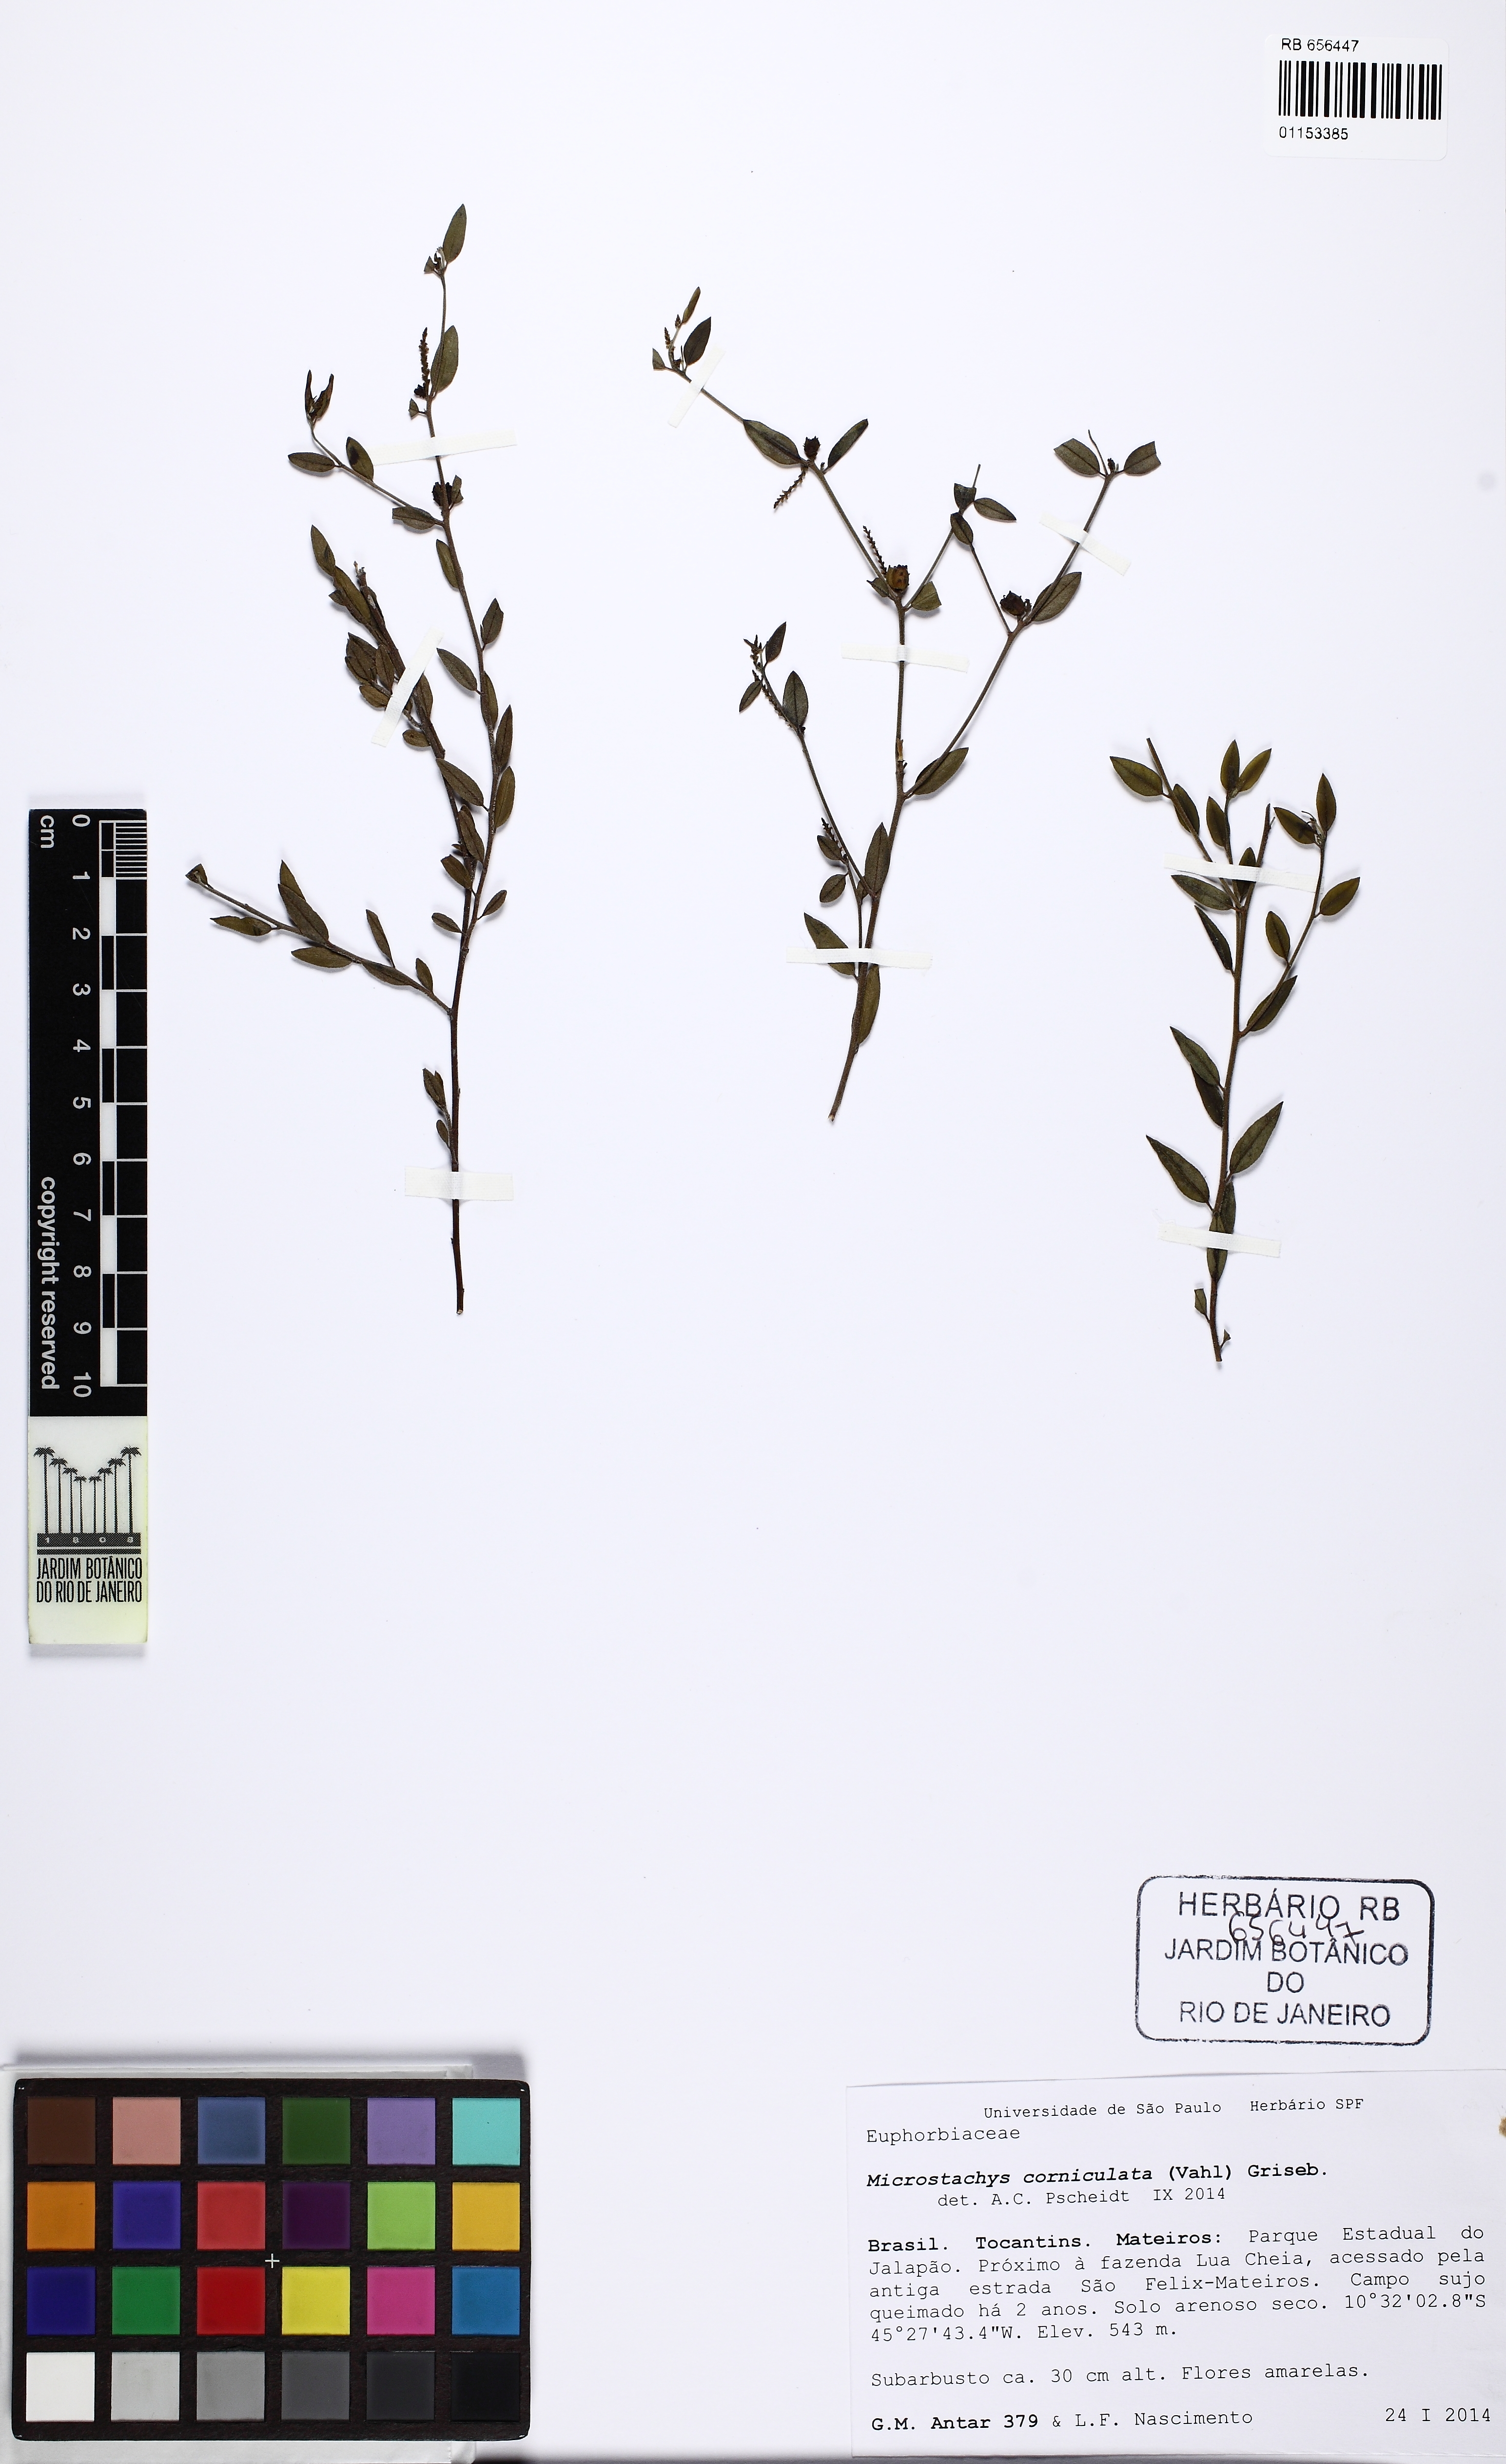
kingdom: Plantae
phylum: Tracheophyta
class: Magnoliopsida
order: Malpighiales
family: Euphorbiaceae
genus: Microstachys
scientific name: Microstachys corniculata
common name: Hato tejas
